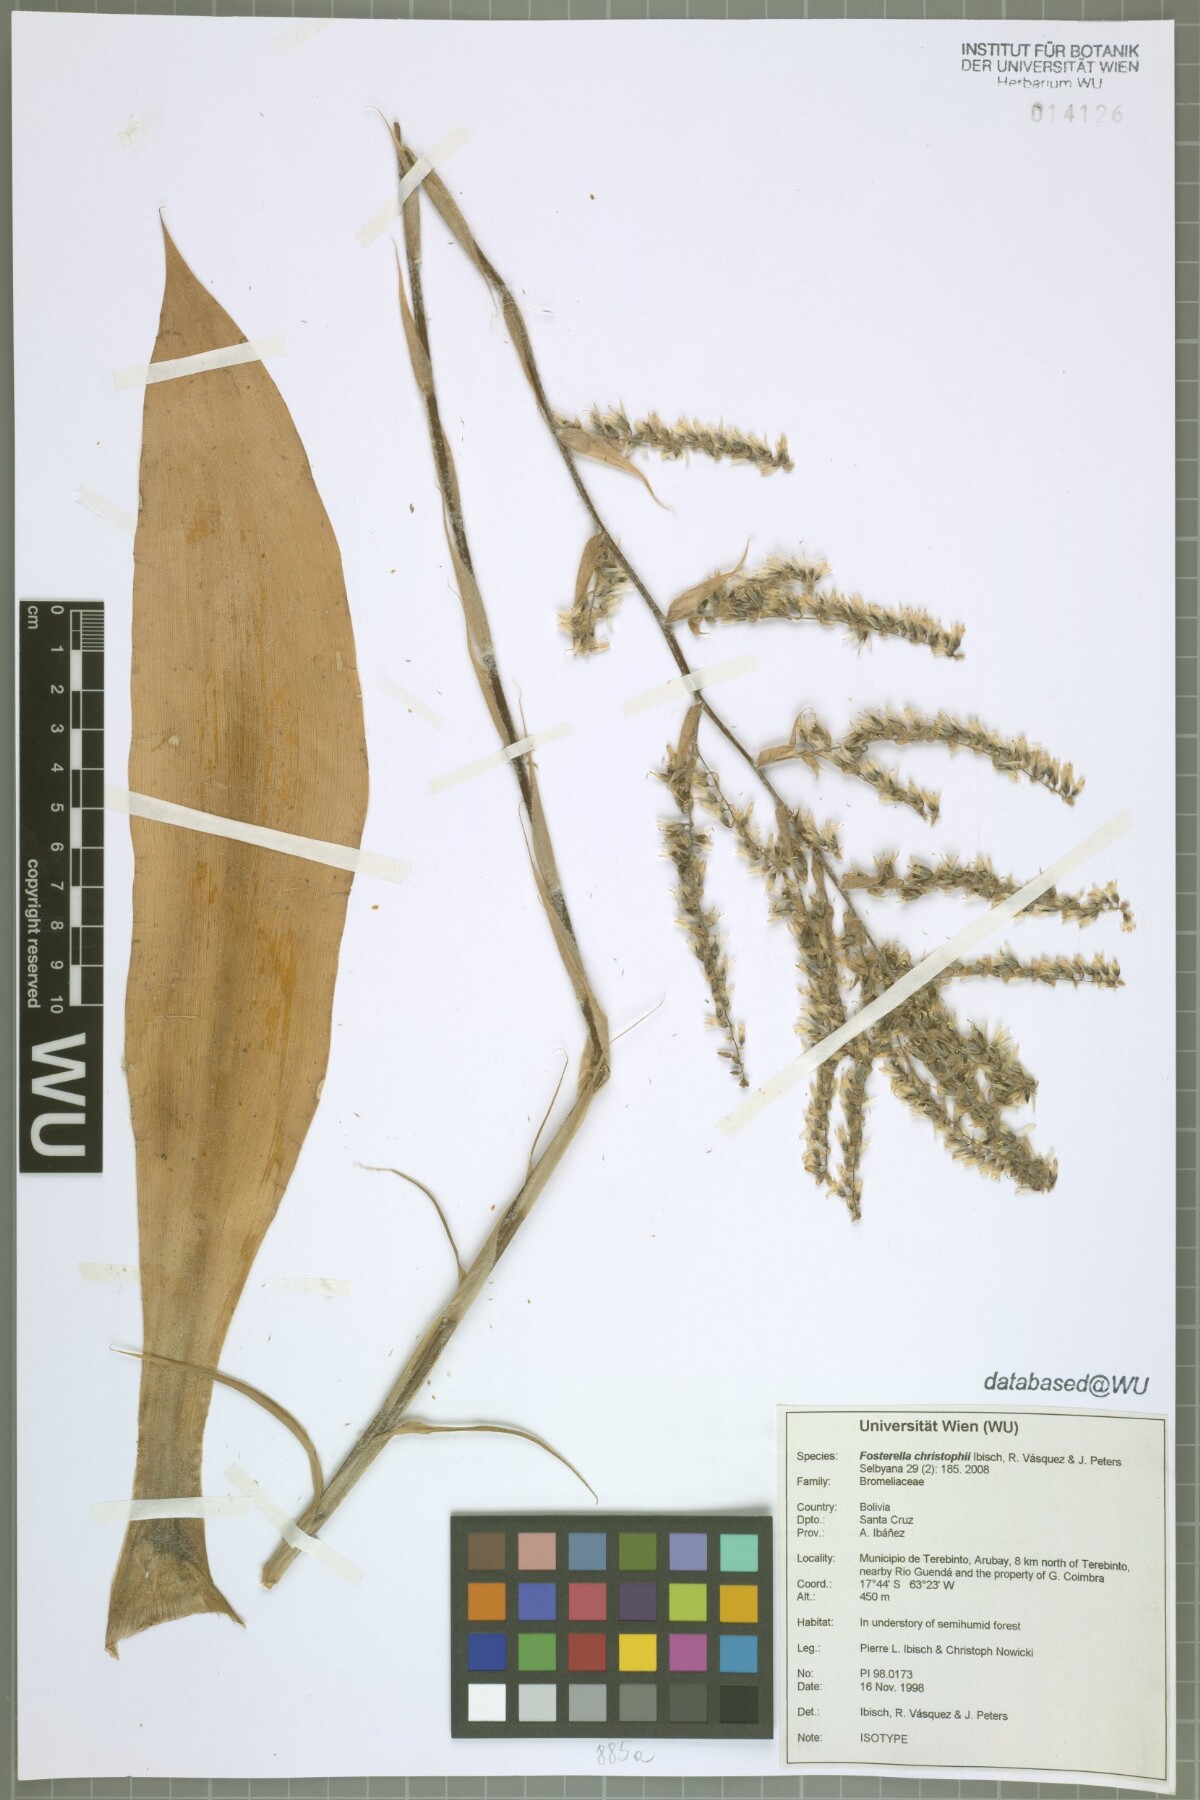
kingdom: Plantae
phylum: Tracheophyta
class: Liliopsida
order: Poales
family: Bromeliaceae
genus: Fosterella
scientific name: Fosterella christophii
